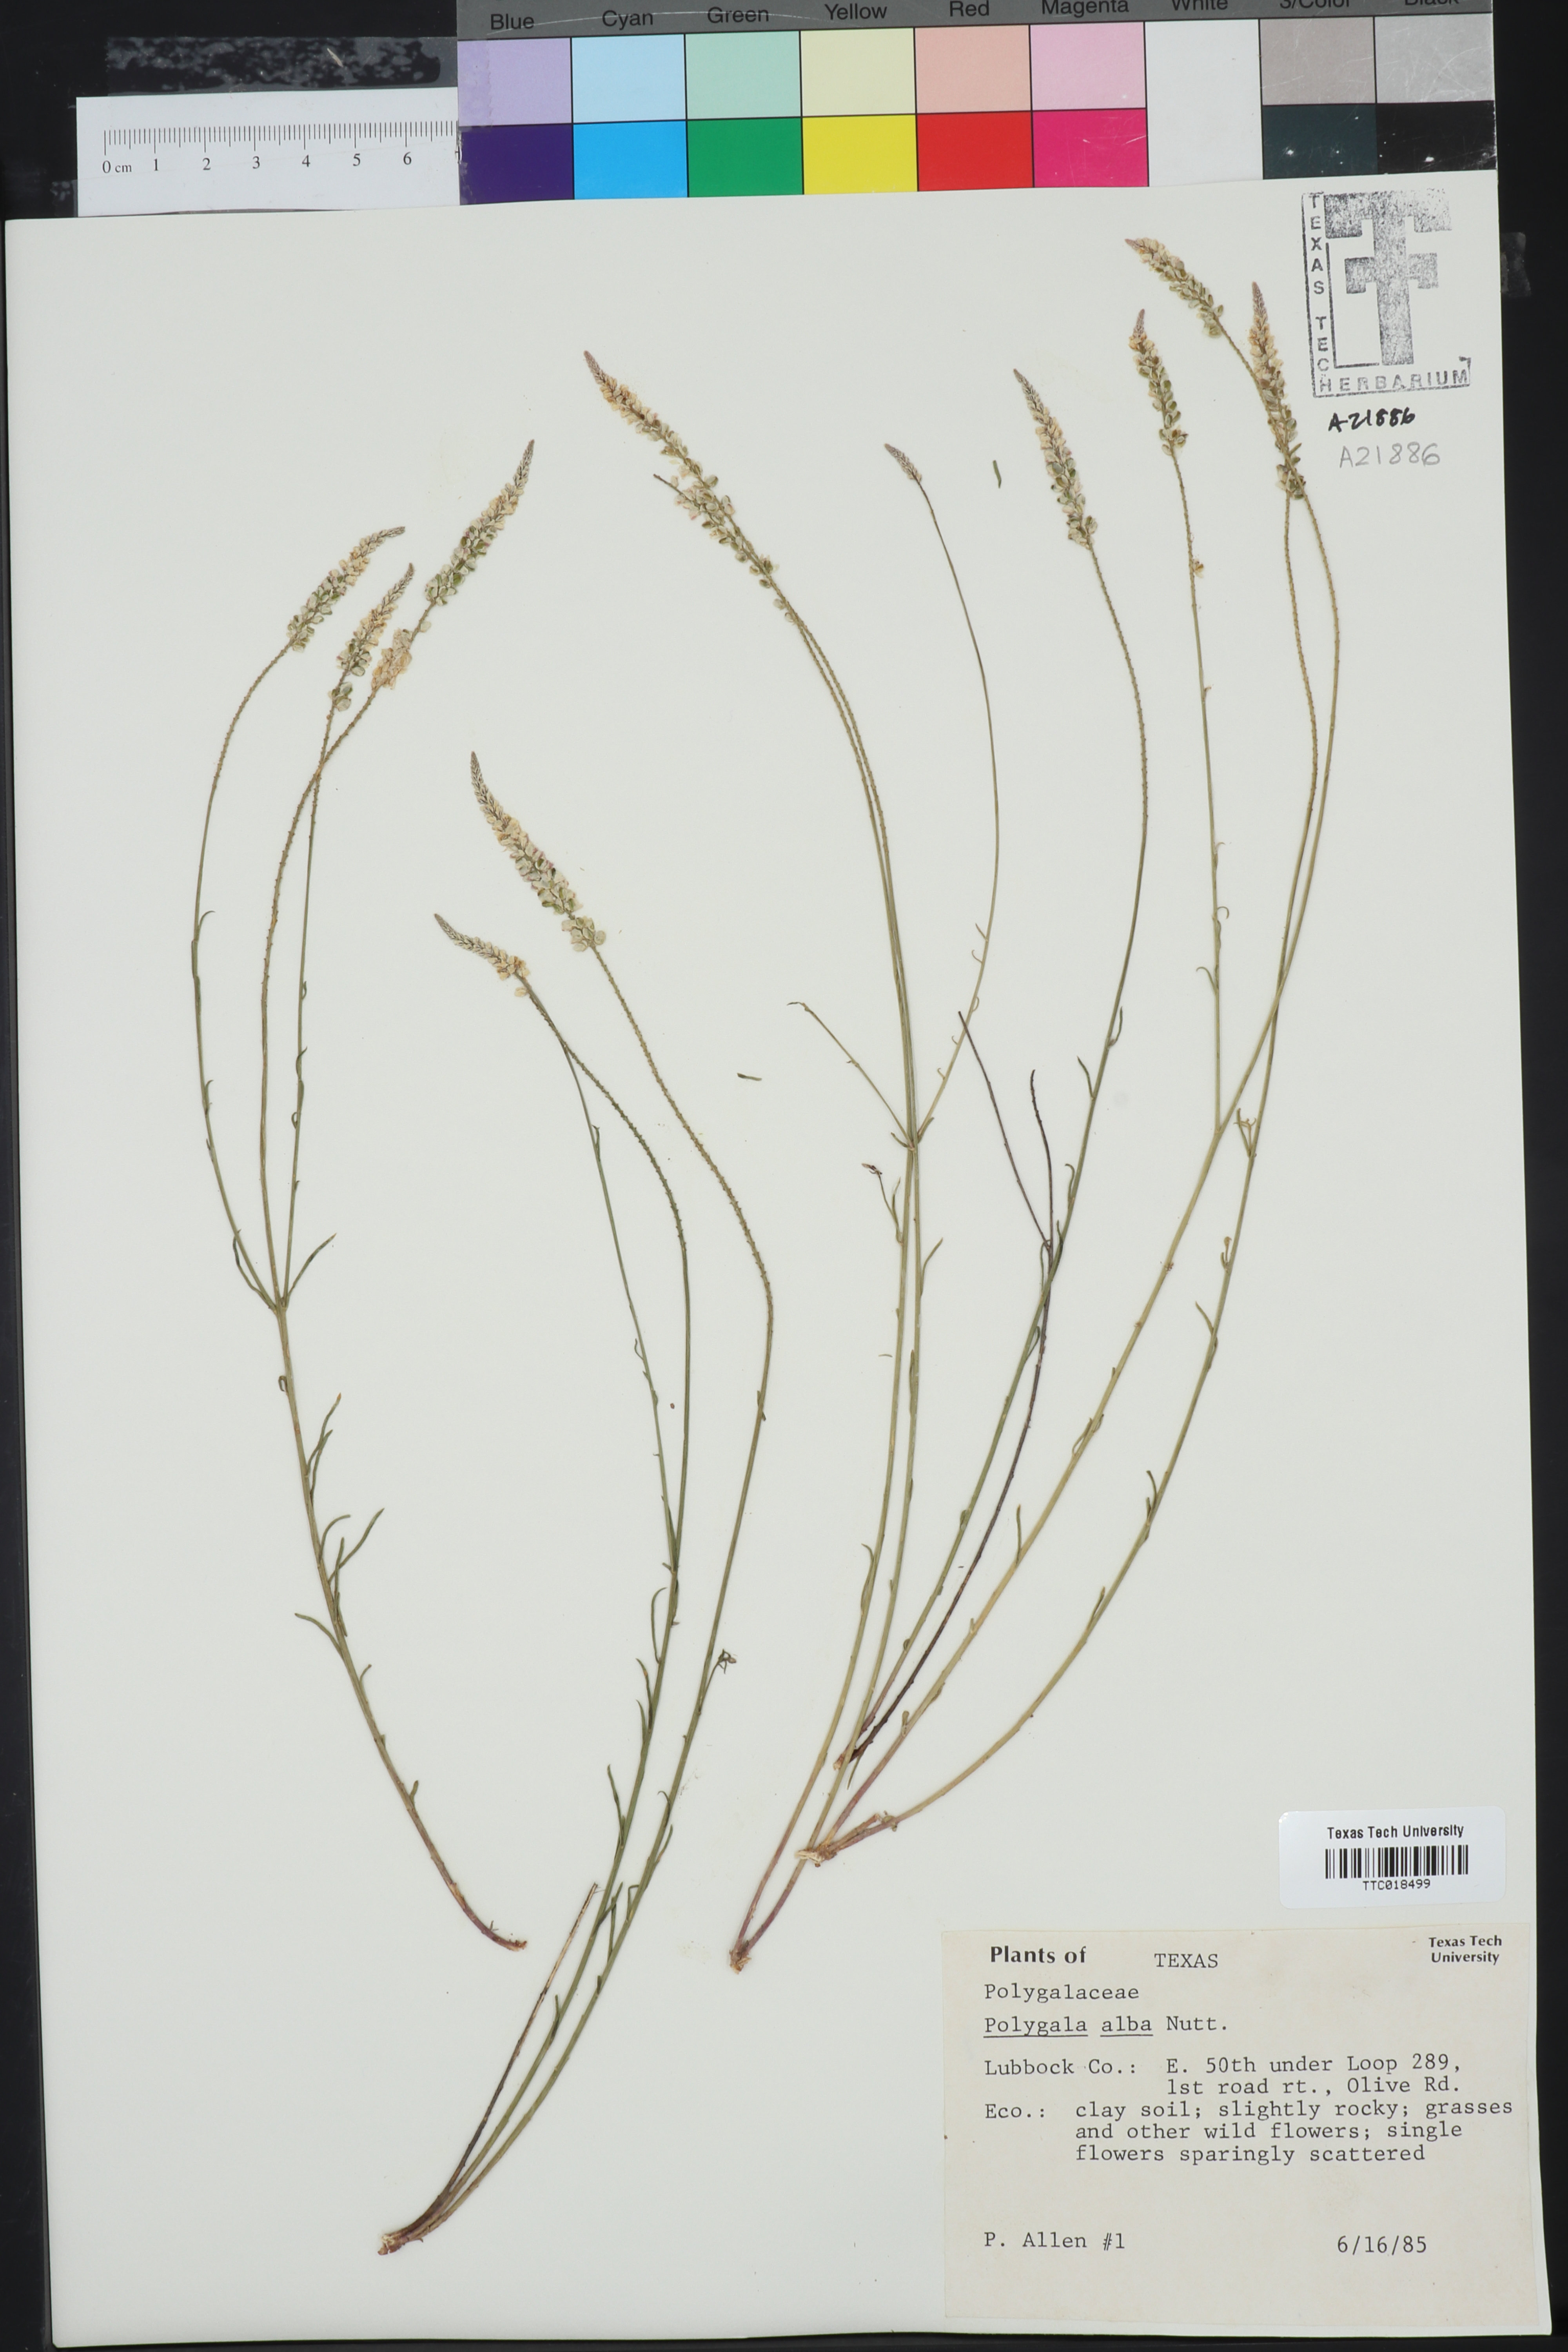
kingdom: Plantae
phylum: Tracheophyta
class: Magnoliopsida
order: Fabales
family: Polygalaceae
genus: Polygala
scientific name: Polygala alba
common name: White milkwort
